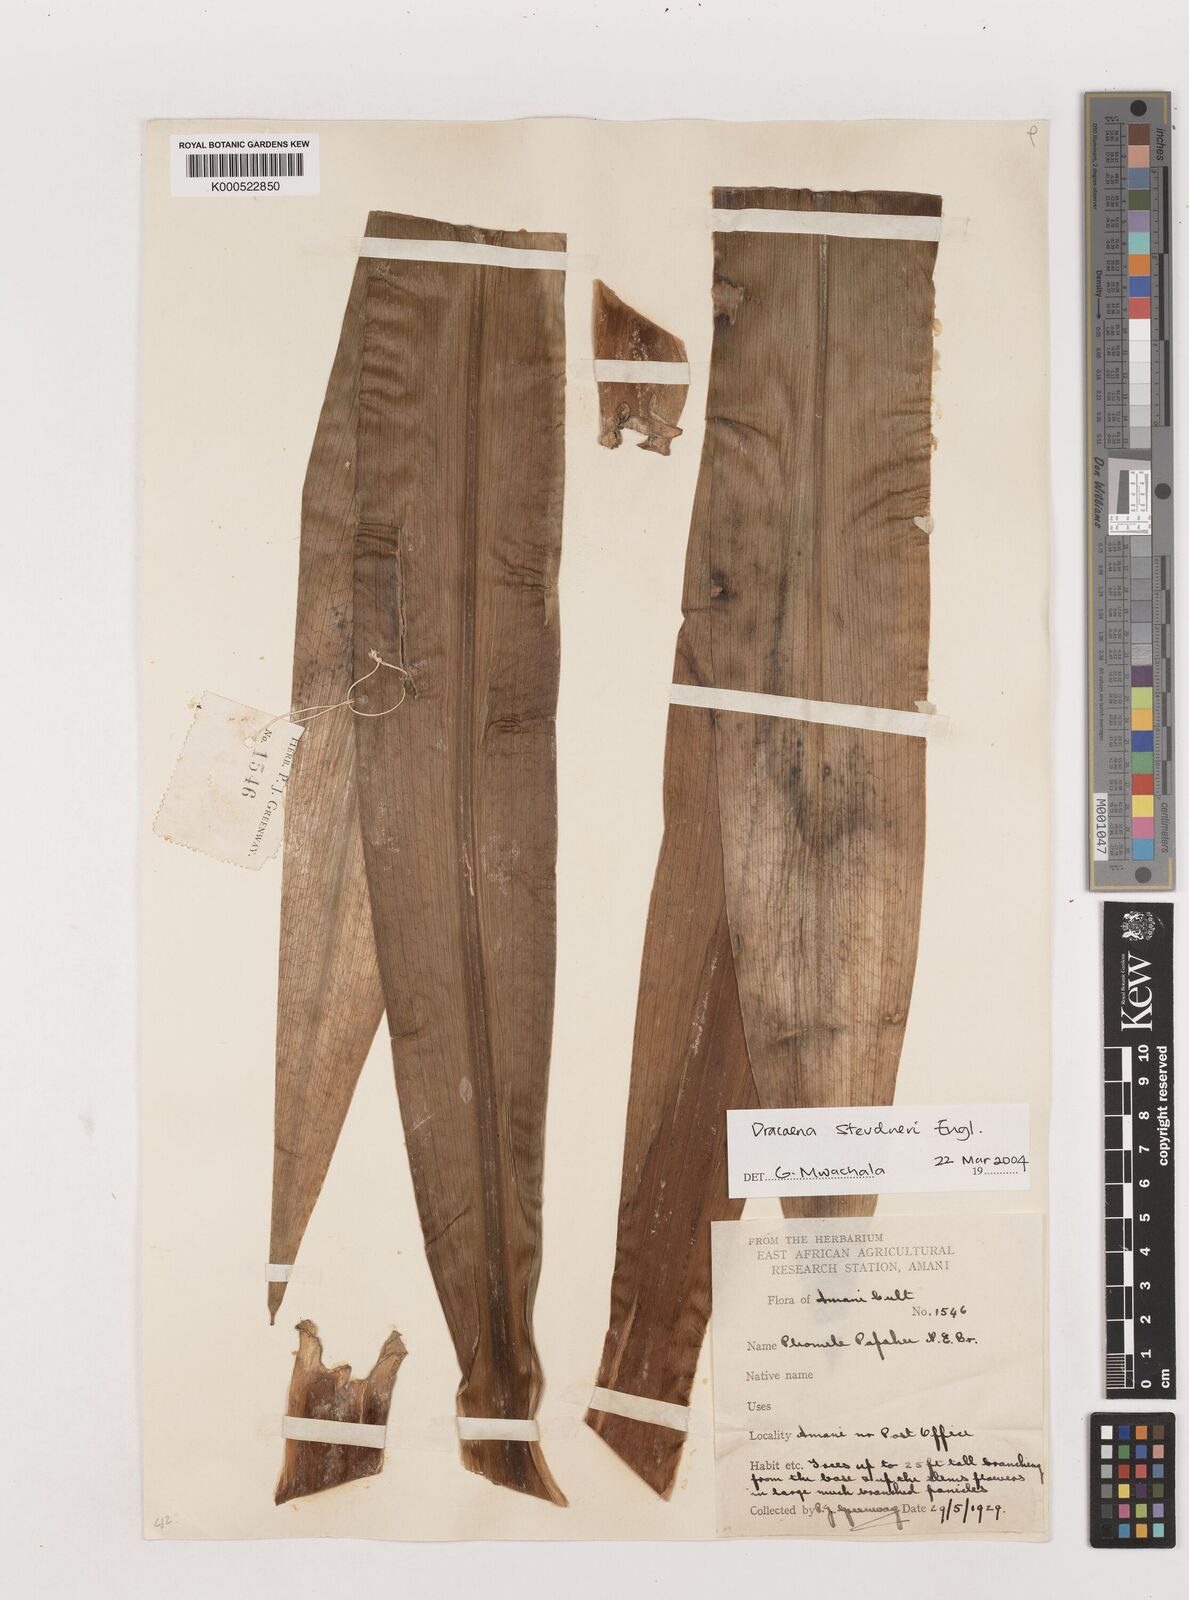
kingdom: Plantae
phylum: Tracheophyta
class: Liliopsida
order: Asparagales
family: Asparagaceae
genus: Dracaena
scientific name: Dracaena steudneri
